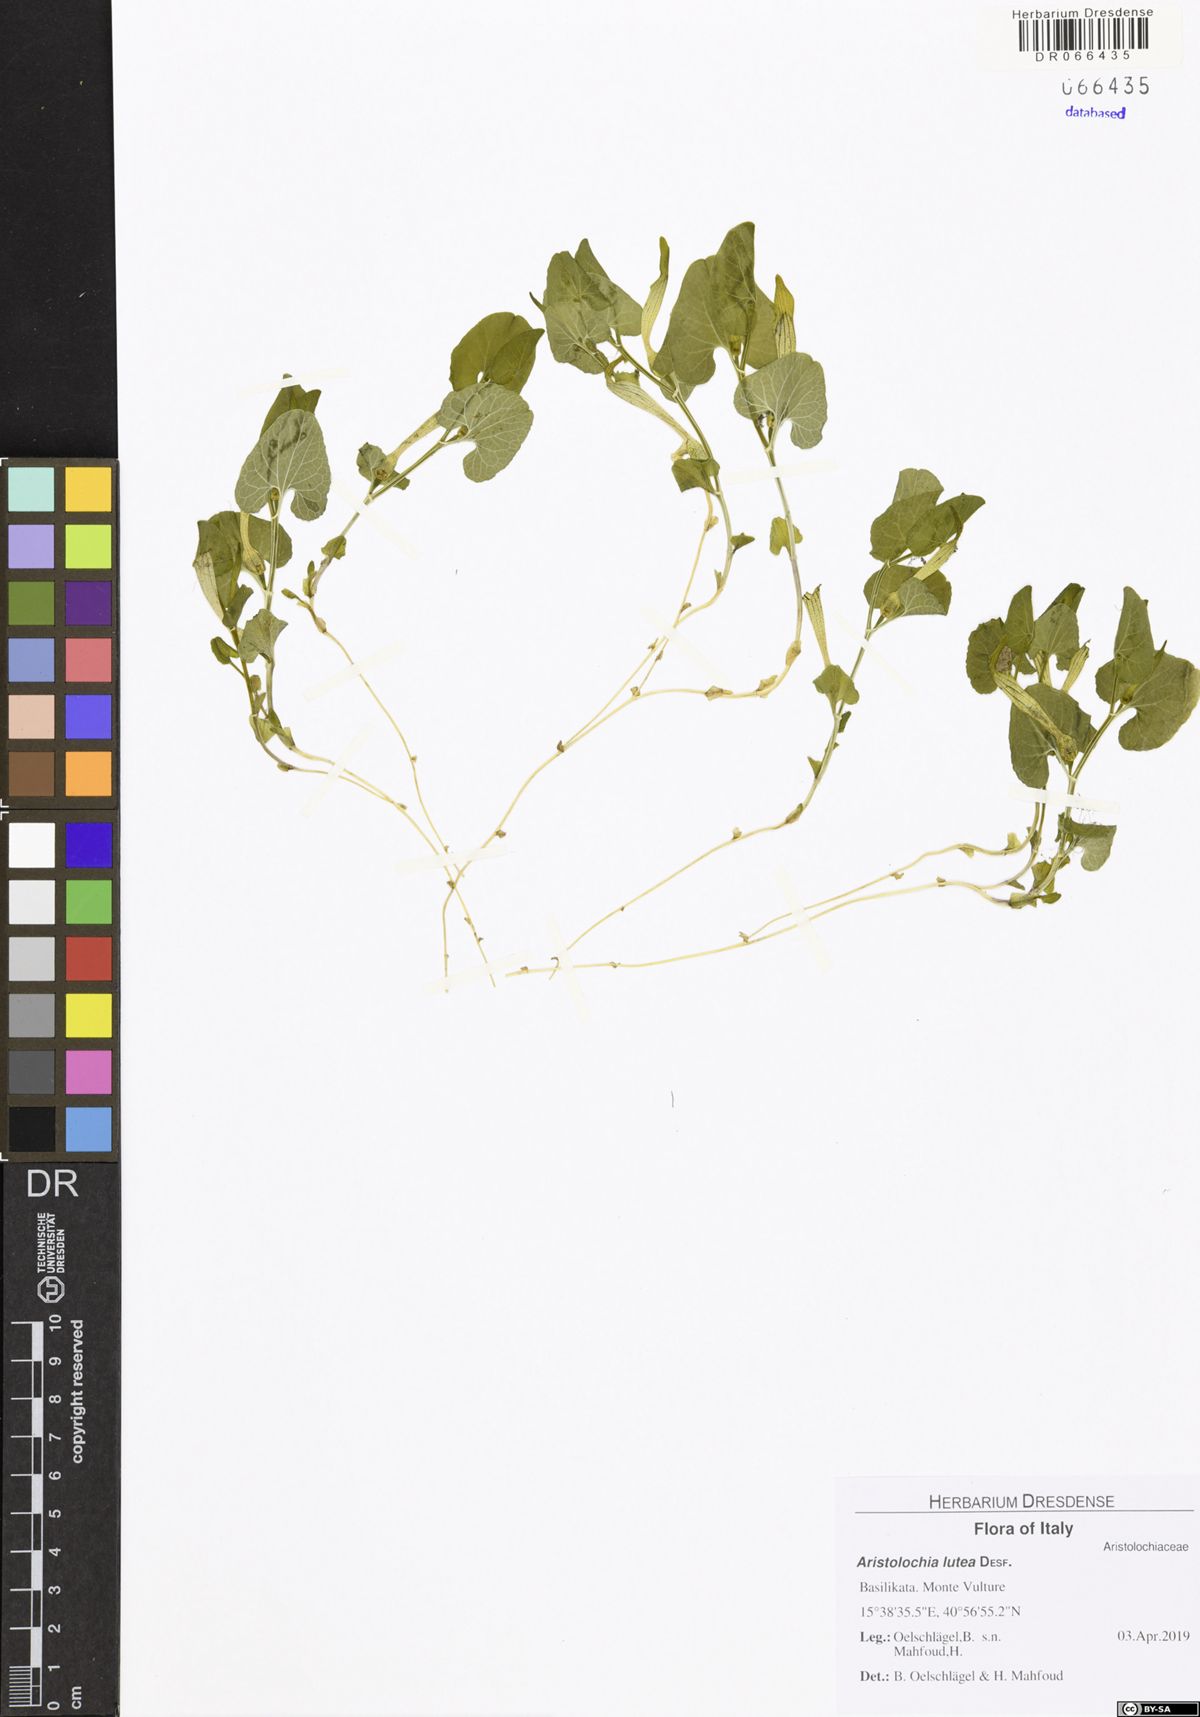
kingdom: Plantae
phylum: Tracheophyta
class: Magnoliopsida
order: Piperales
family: Aristolochiaceae
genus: Aristolochia
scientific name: Aristolochia lutea
